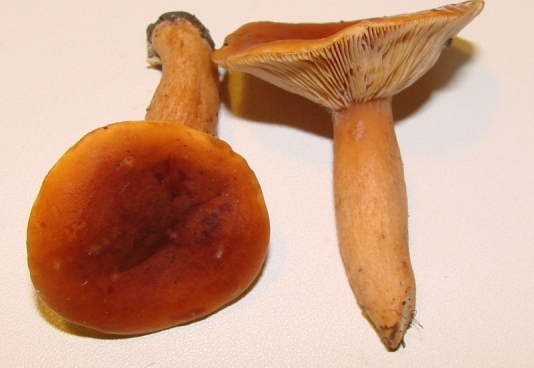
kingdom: Fungi
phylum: Basidiomycota
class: Agaricomycetes
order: Russulales
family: Russulaceae
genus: Lactarius
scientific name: Lactarius fulvissimus
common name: ræve-mælkehat
